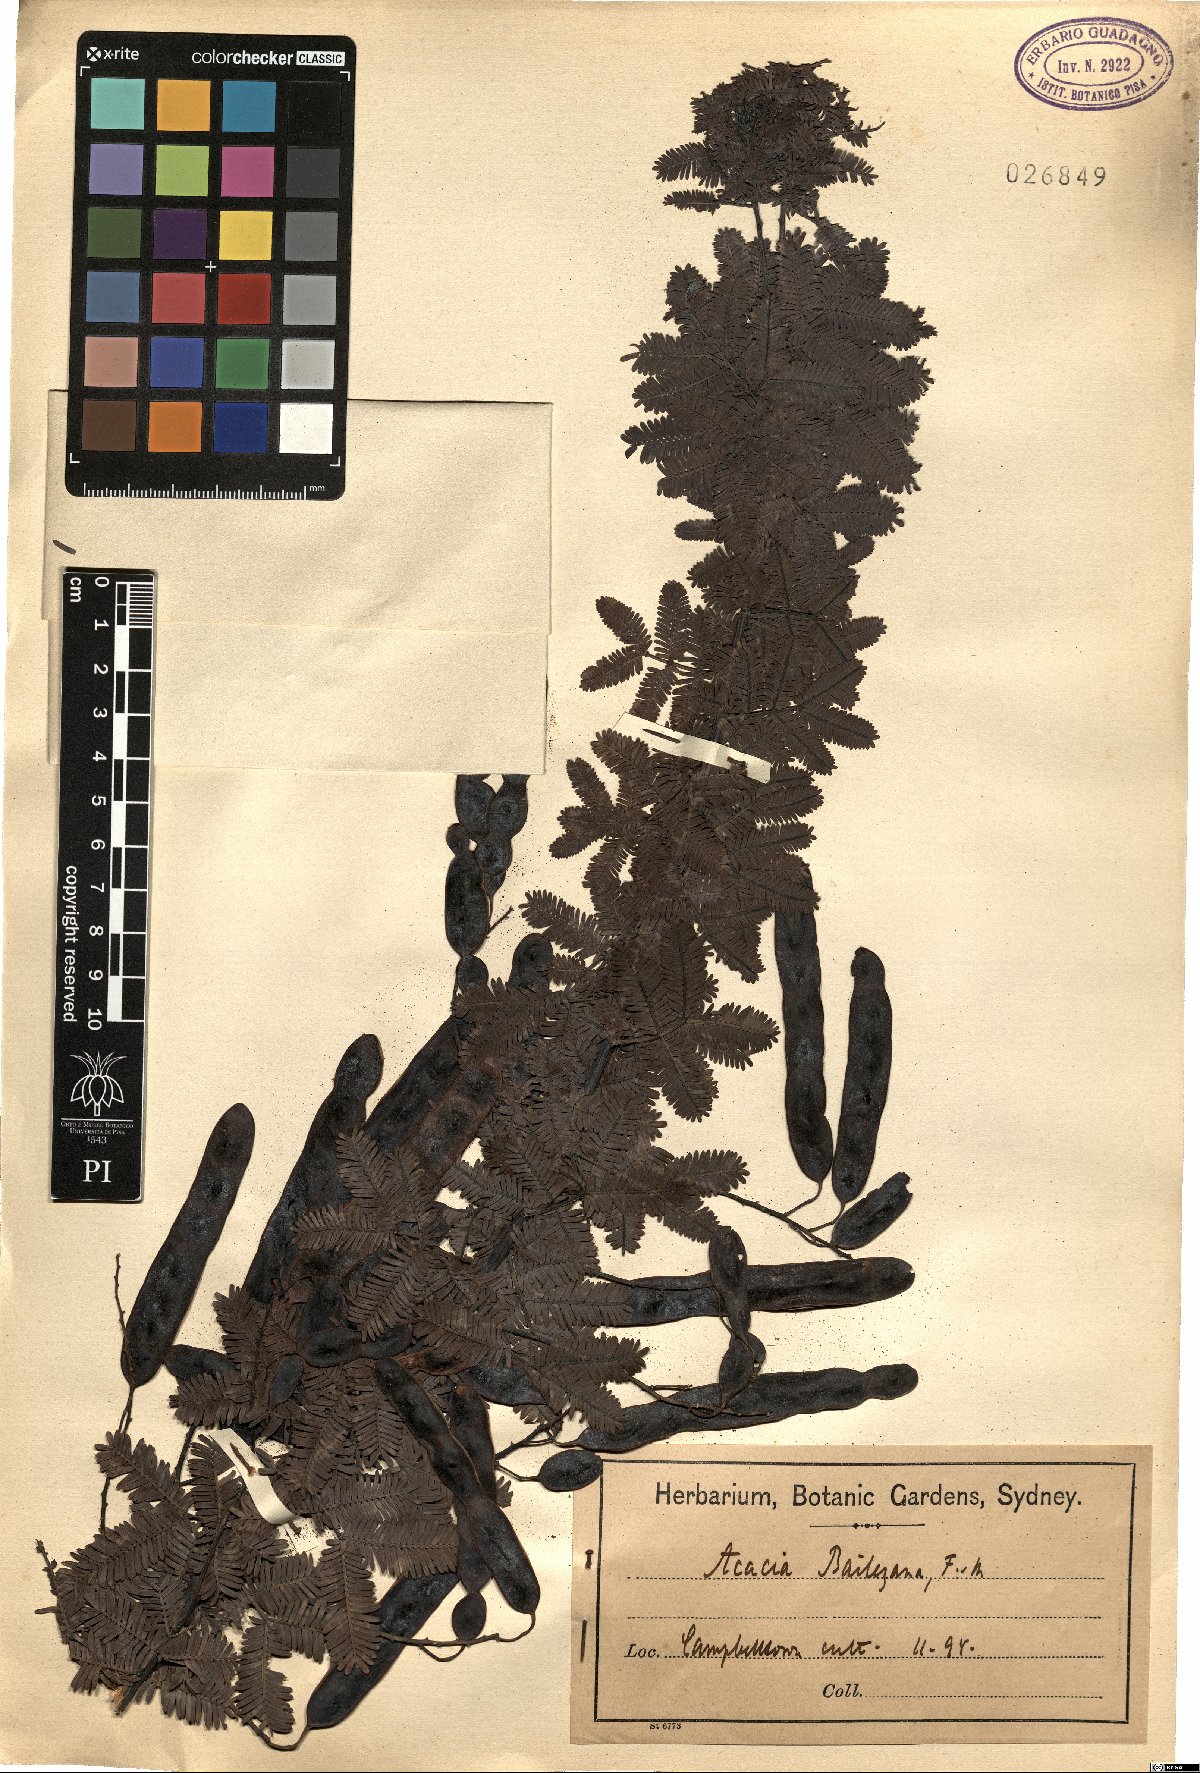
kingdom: Plantae
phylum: Tracheophyta
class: Magnoliopsida
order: Fabales
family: Fabaceae
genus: Acacia
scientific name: Acacia baileyana
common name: Cootamundra wattle
